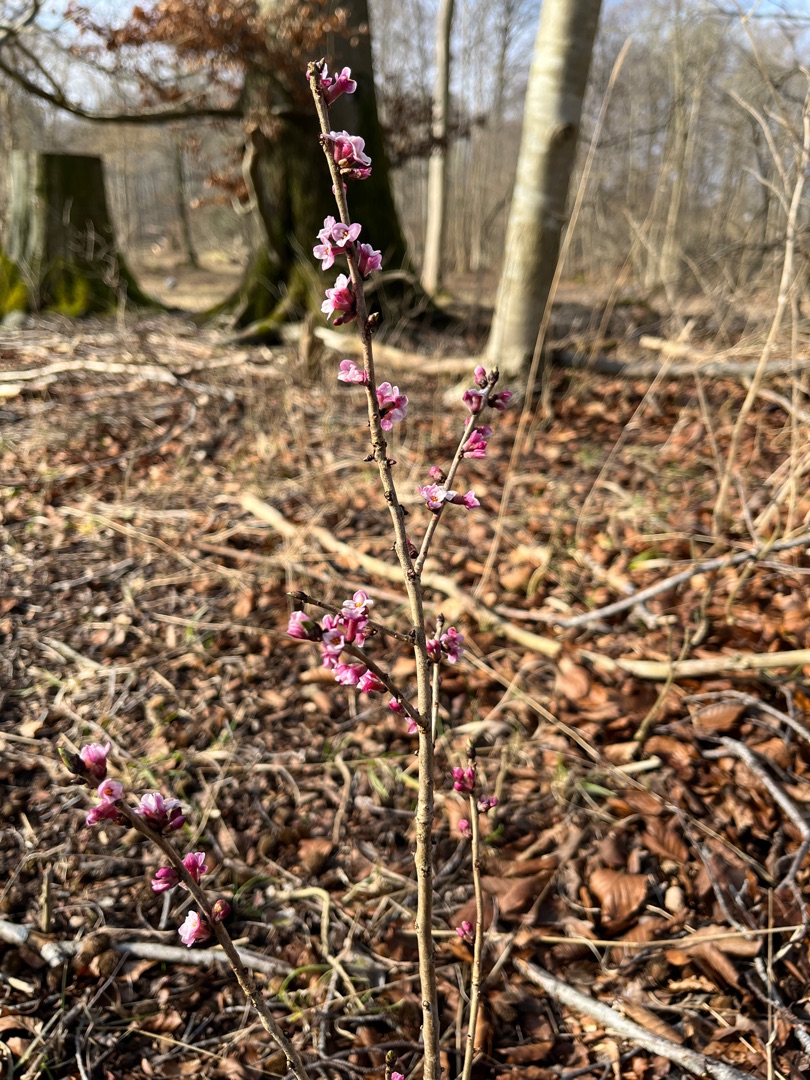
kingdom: Plantae
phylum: Tracheophyta
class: Magnoliopsida
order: Malvales
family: Thymelaeaceae
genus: Daphne
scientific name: Daphne mezereum
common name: Pebertræ
